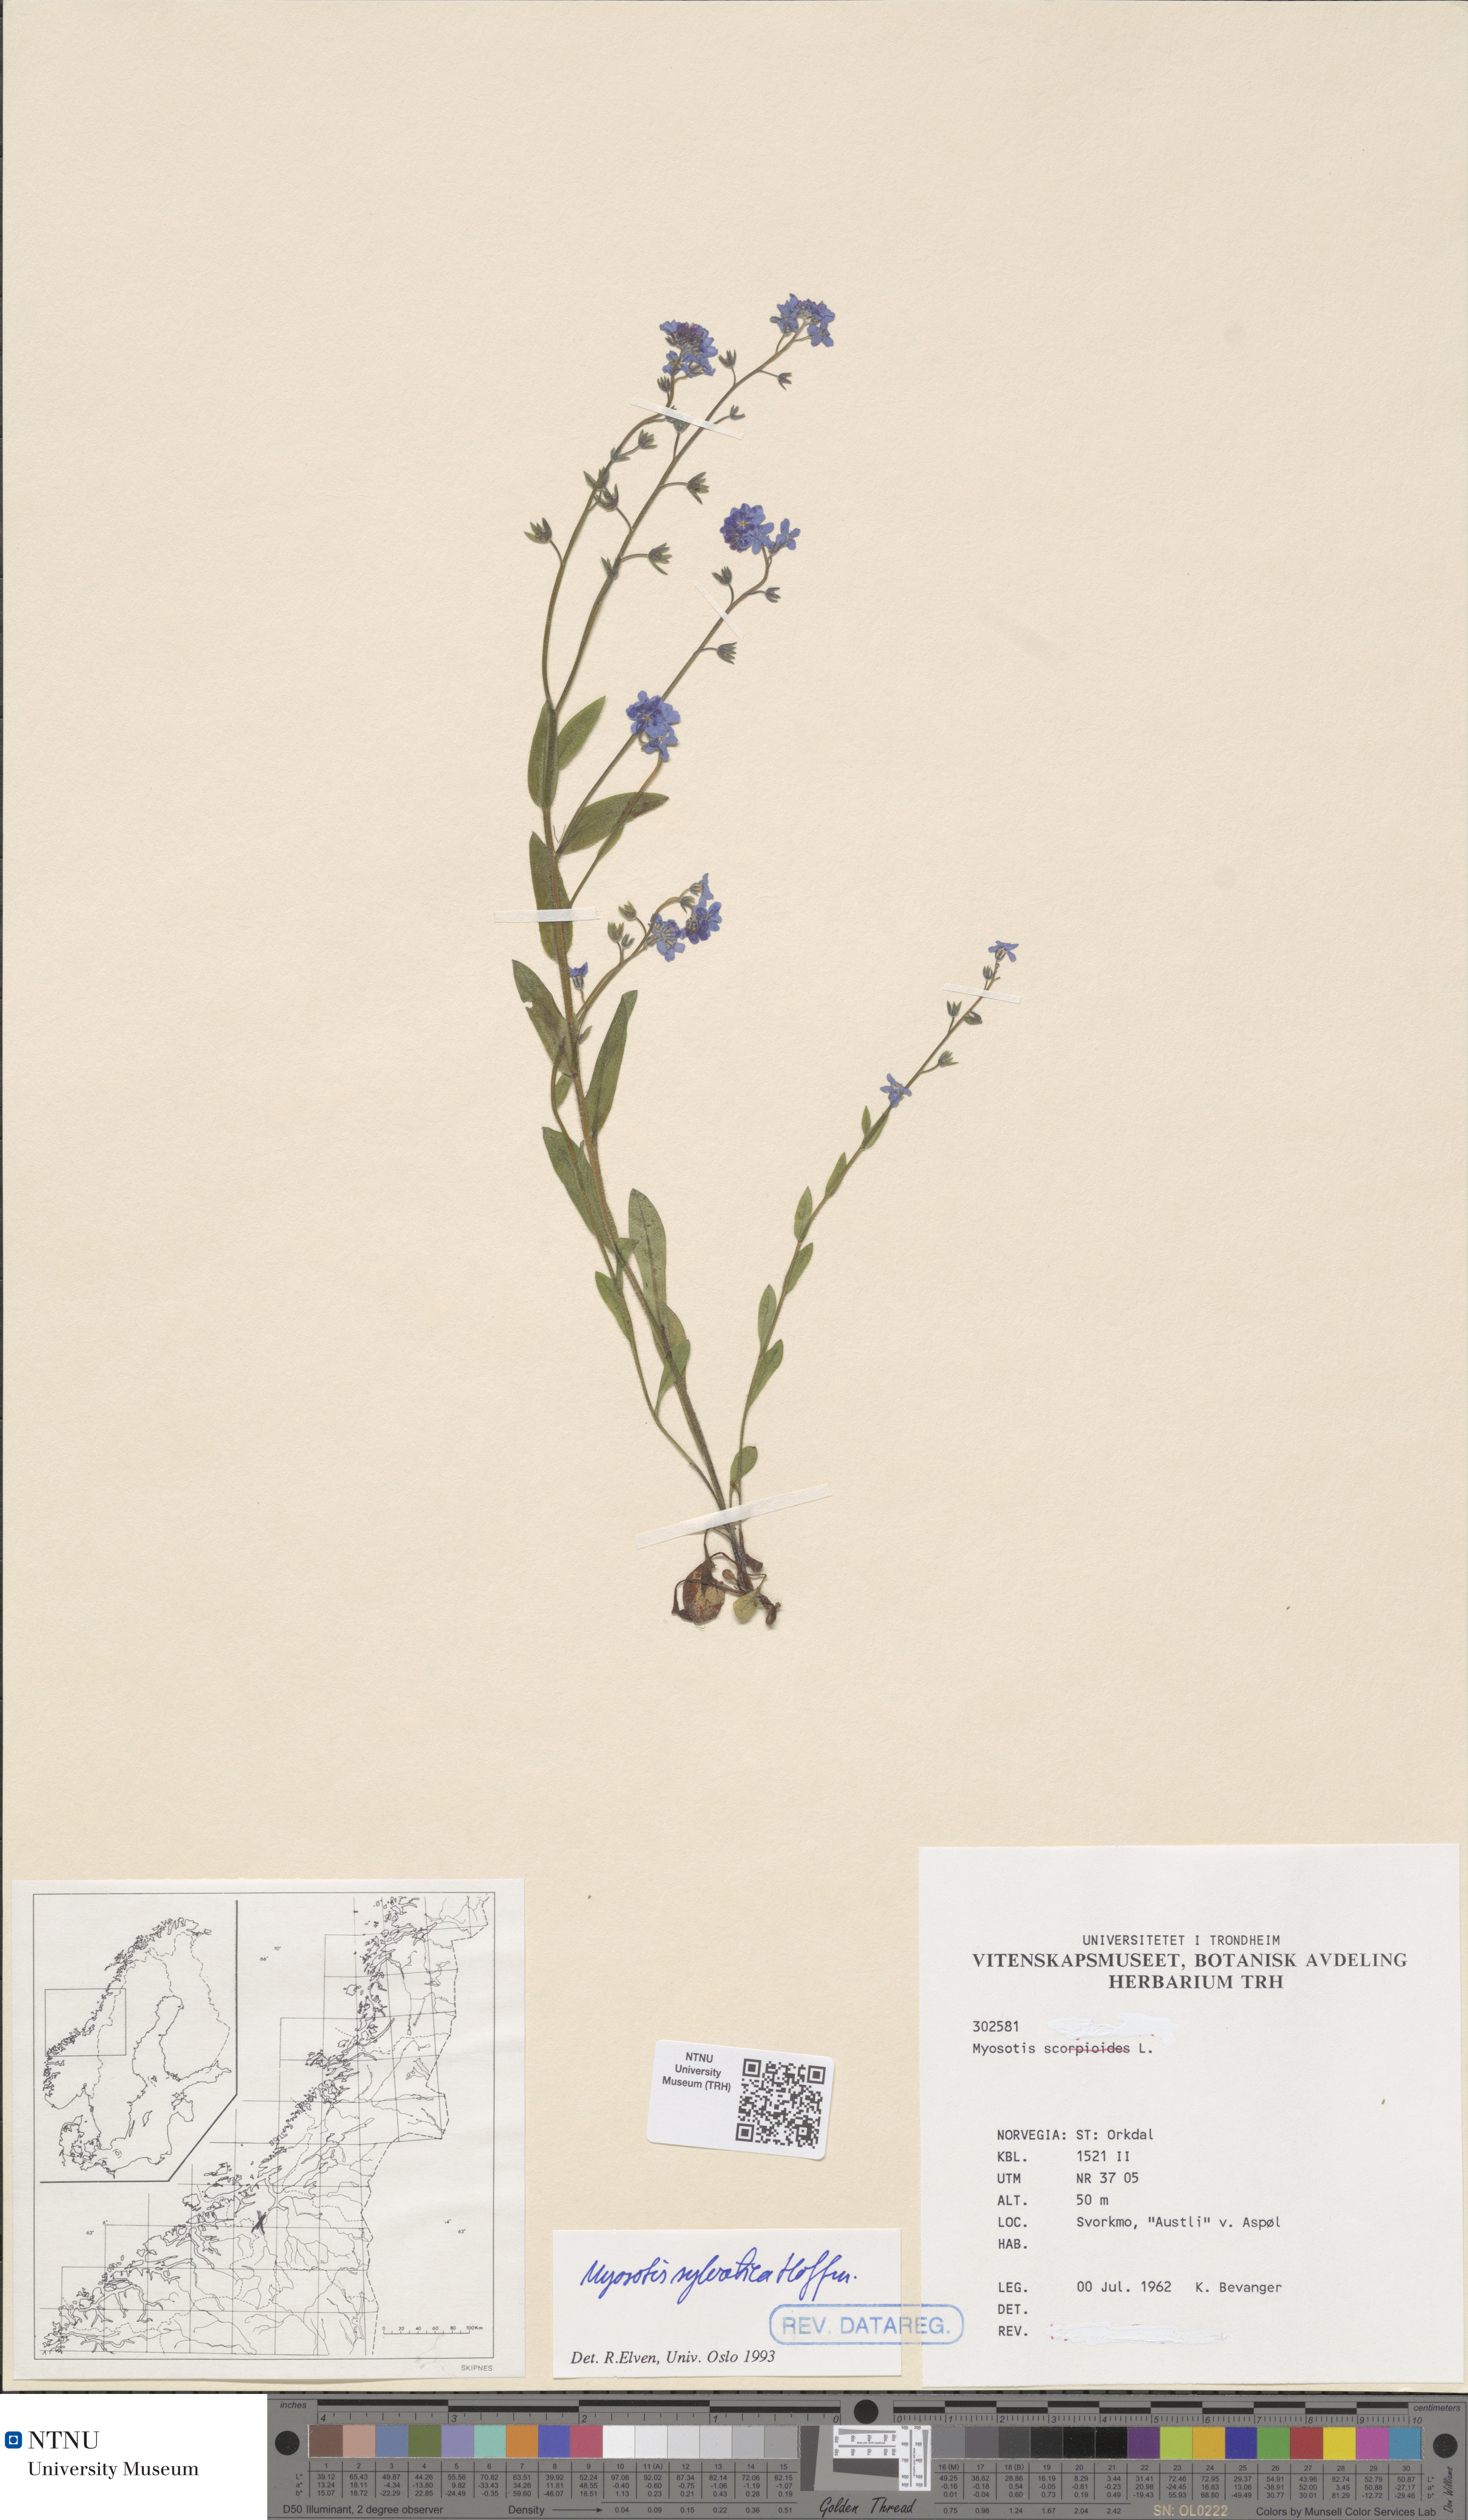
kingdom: Plantae
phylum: Tracheophyta
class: Magnoliopsida
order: Boraginales
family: Boraginaceae
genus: Myosotis
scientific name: Myosotis sylvatica
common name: Wood forget-me-not
